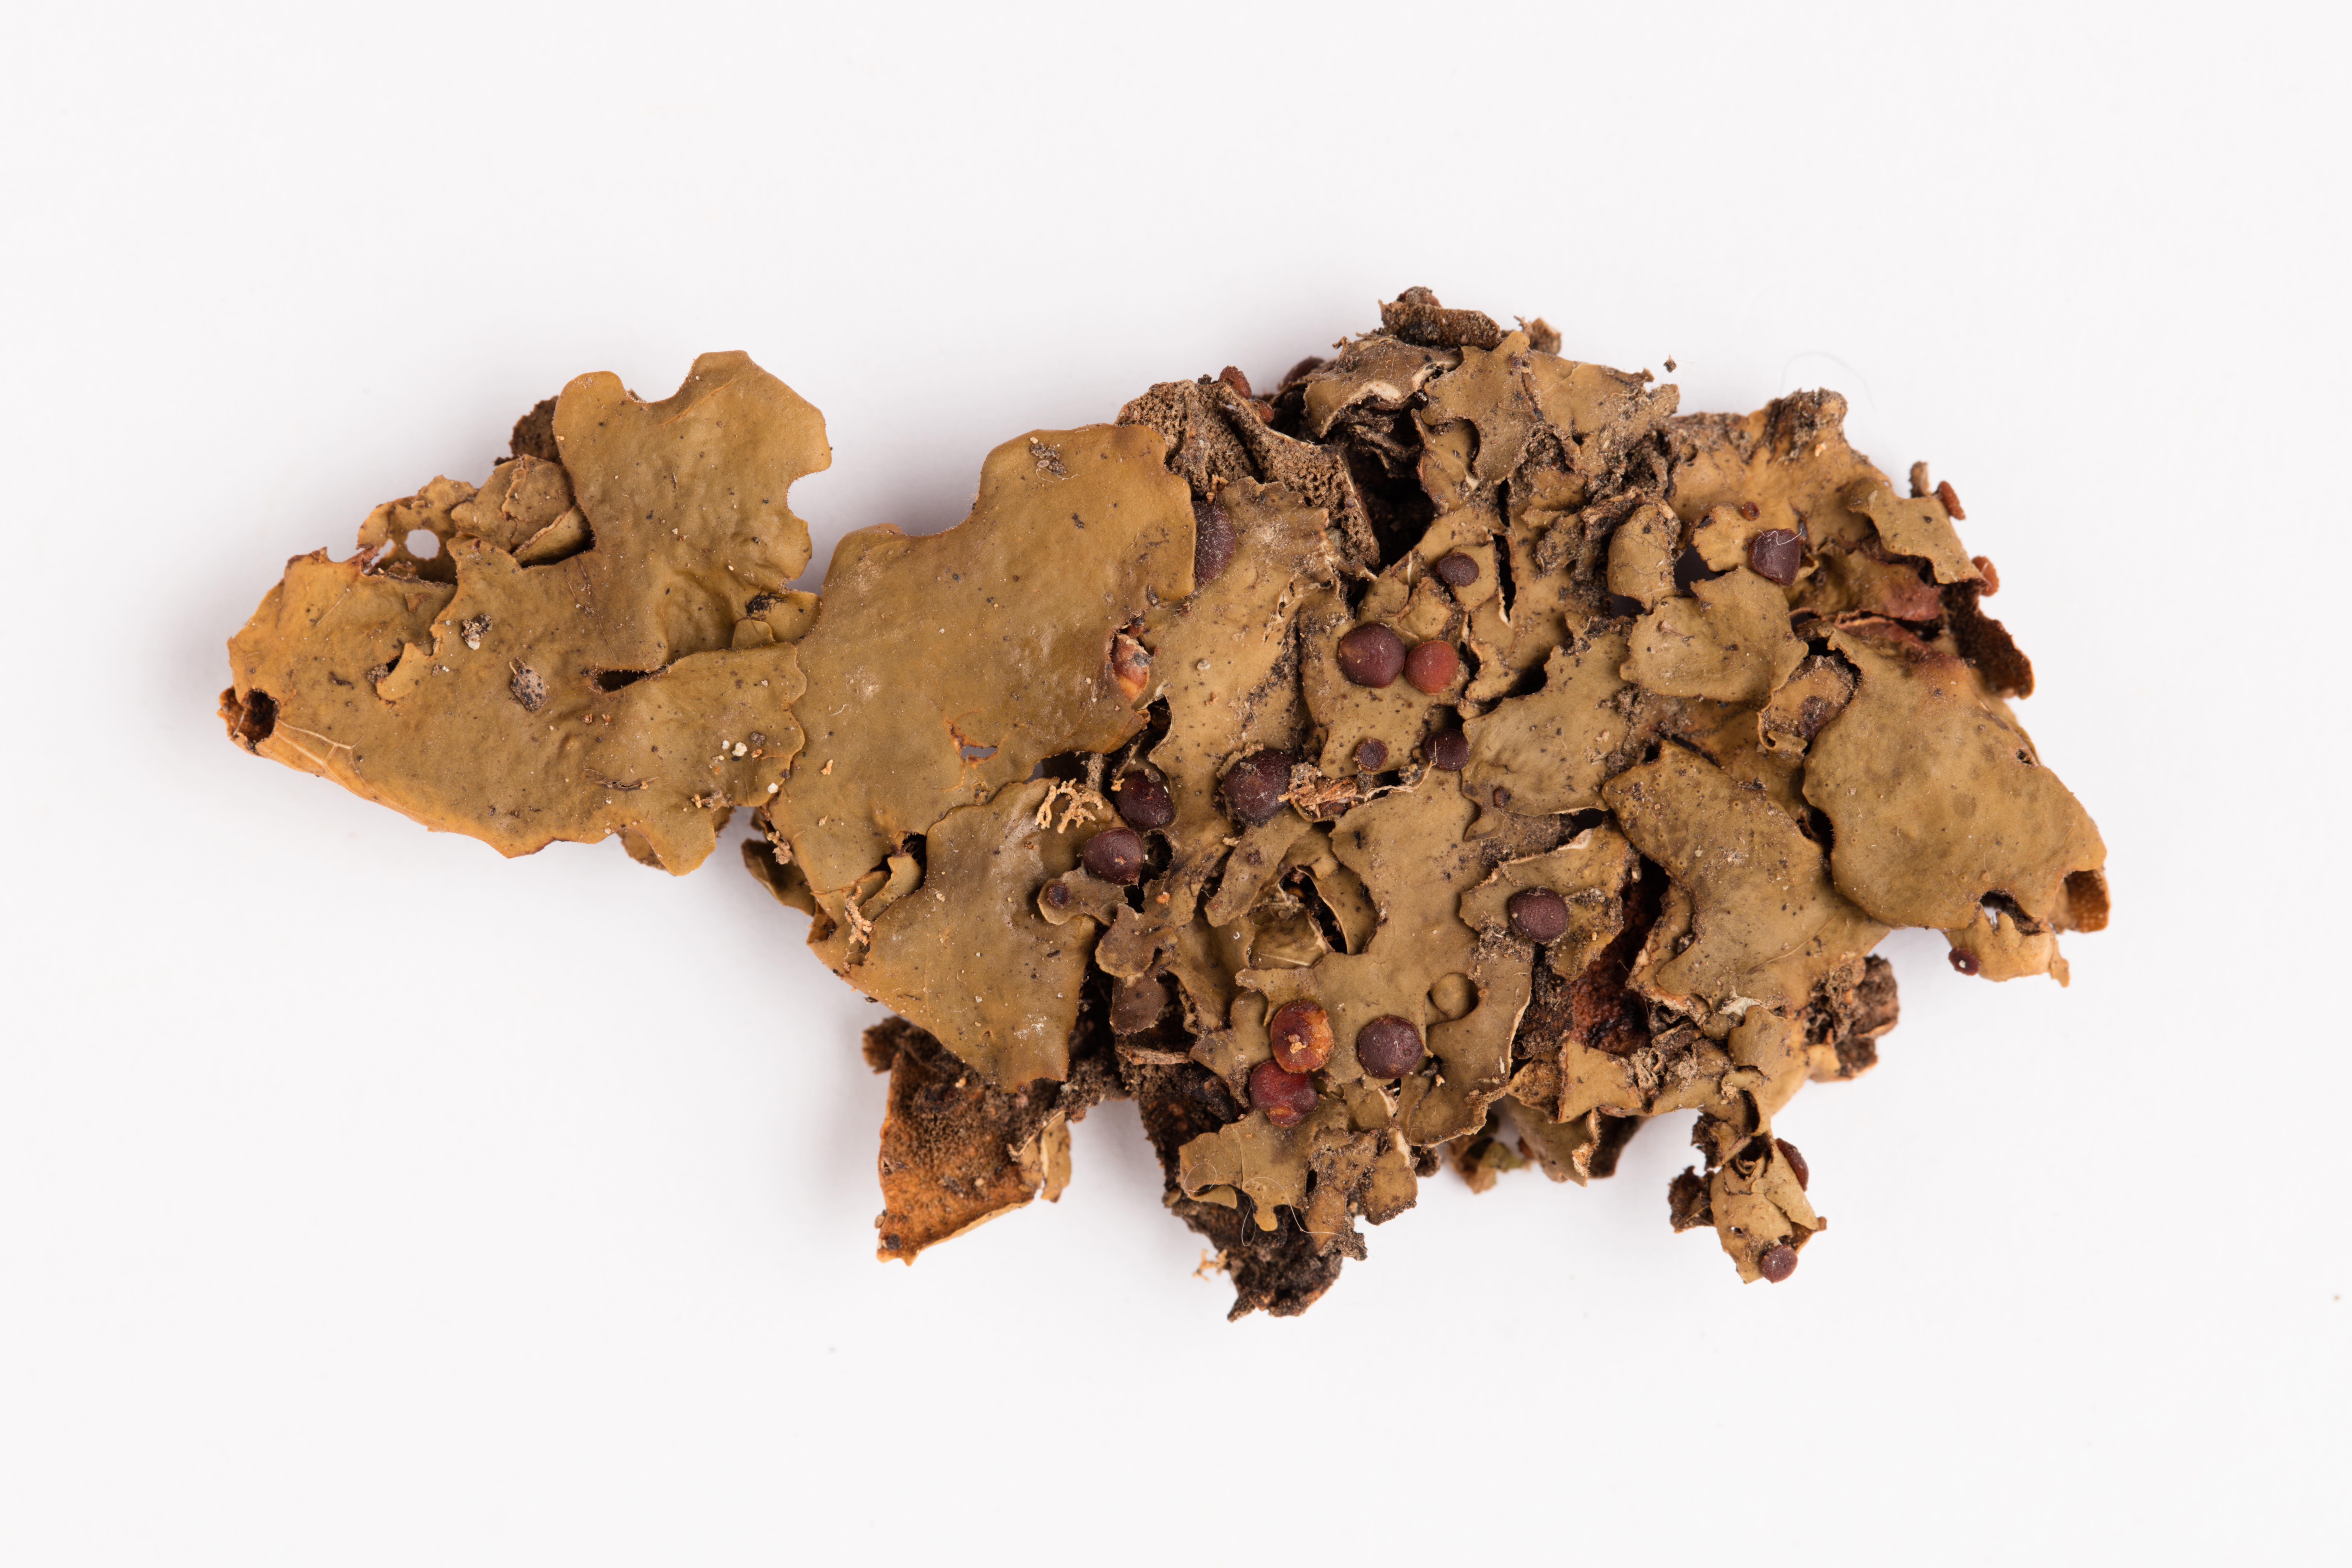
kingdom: Fungi
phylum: Ascomycota
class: Lecanoromycetes
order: Peltigerales
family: Lobariaceae
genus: Pseudocyphellaria
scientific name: Pseudocyphellaria cinnamomea
